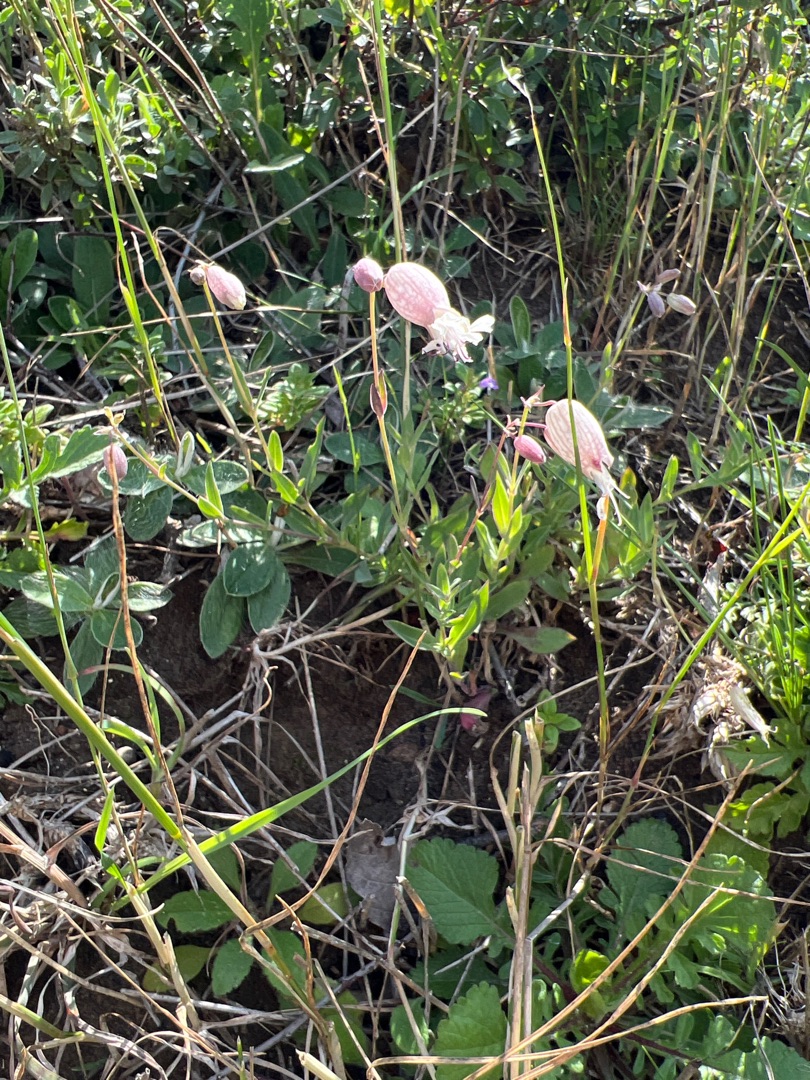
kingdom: Plantae
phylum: Tracheophyta
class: Magnoliopsida
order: Caryophyllales
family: Caryophyllaceae
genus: Silene
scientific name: Silene vulgaris
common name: Blæresmælde
